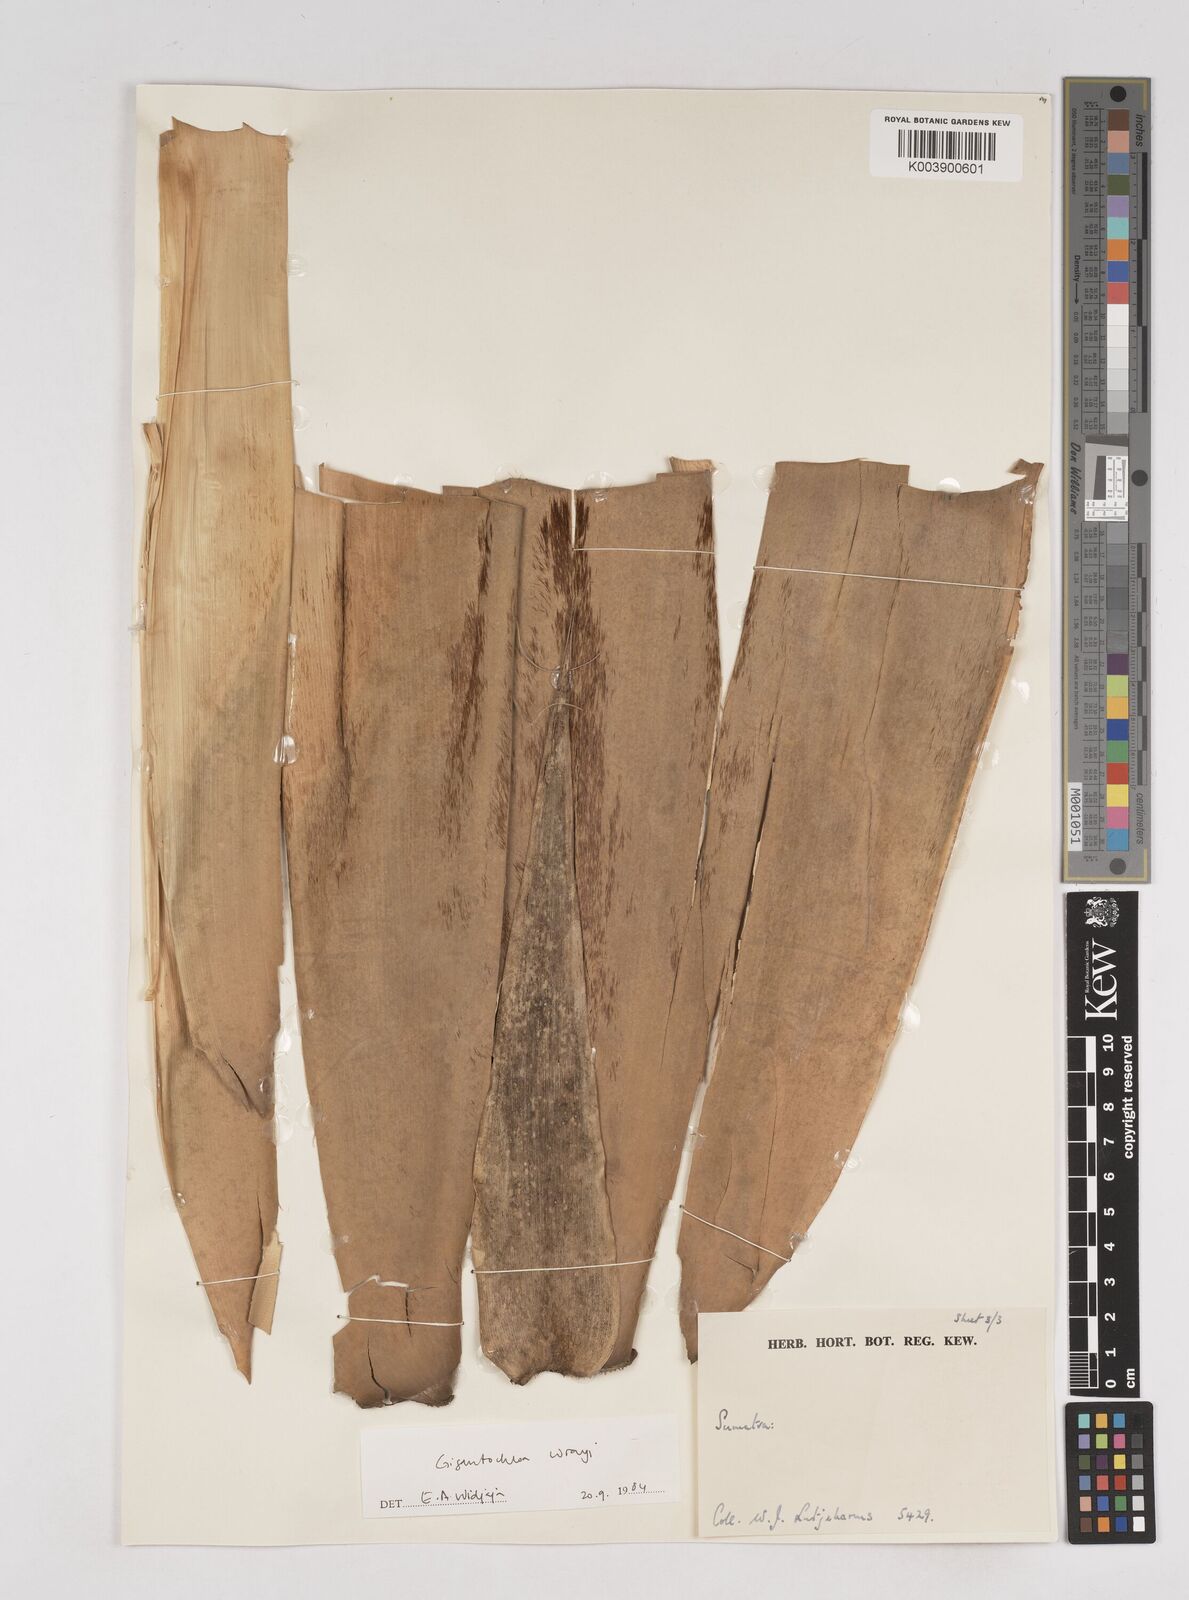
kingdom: Plantae
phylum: Tracheophyta
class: Liliopsida
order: Poales
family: Poaceae
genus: Gigantochloa
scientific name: Gigantochloa wrayi
